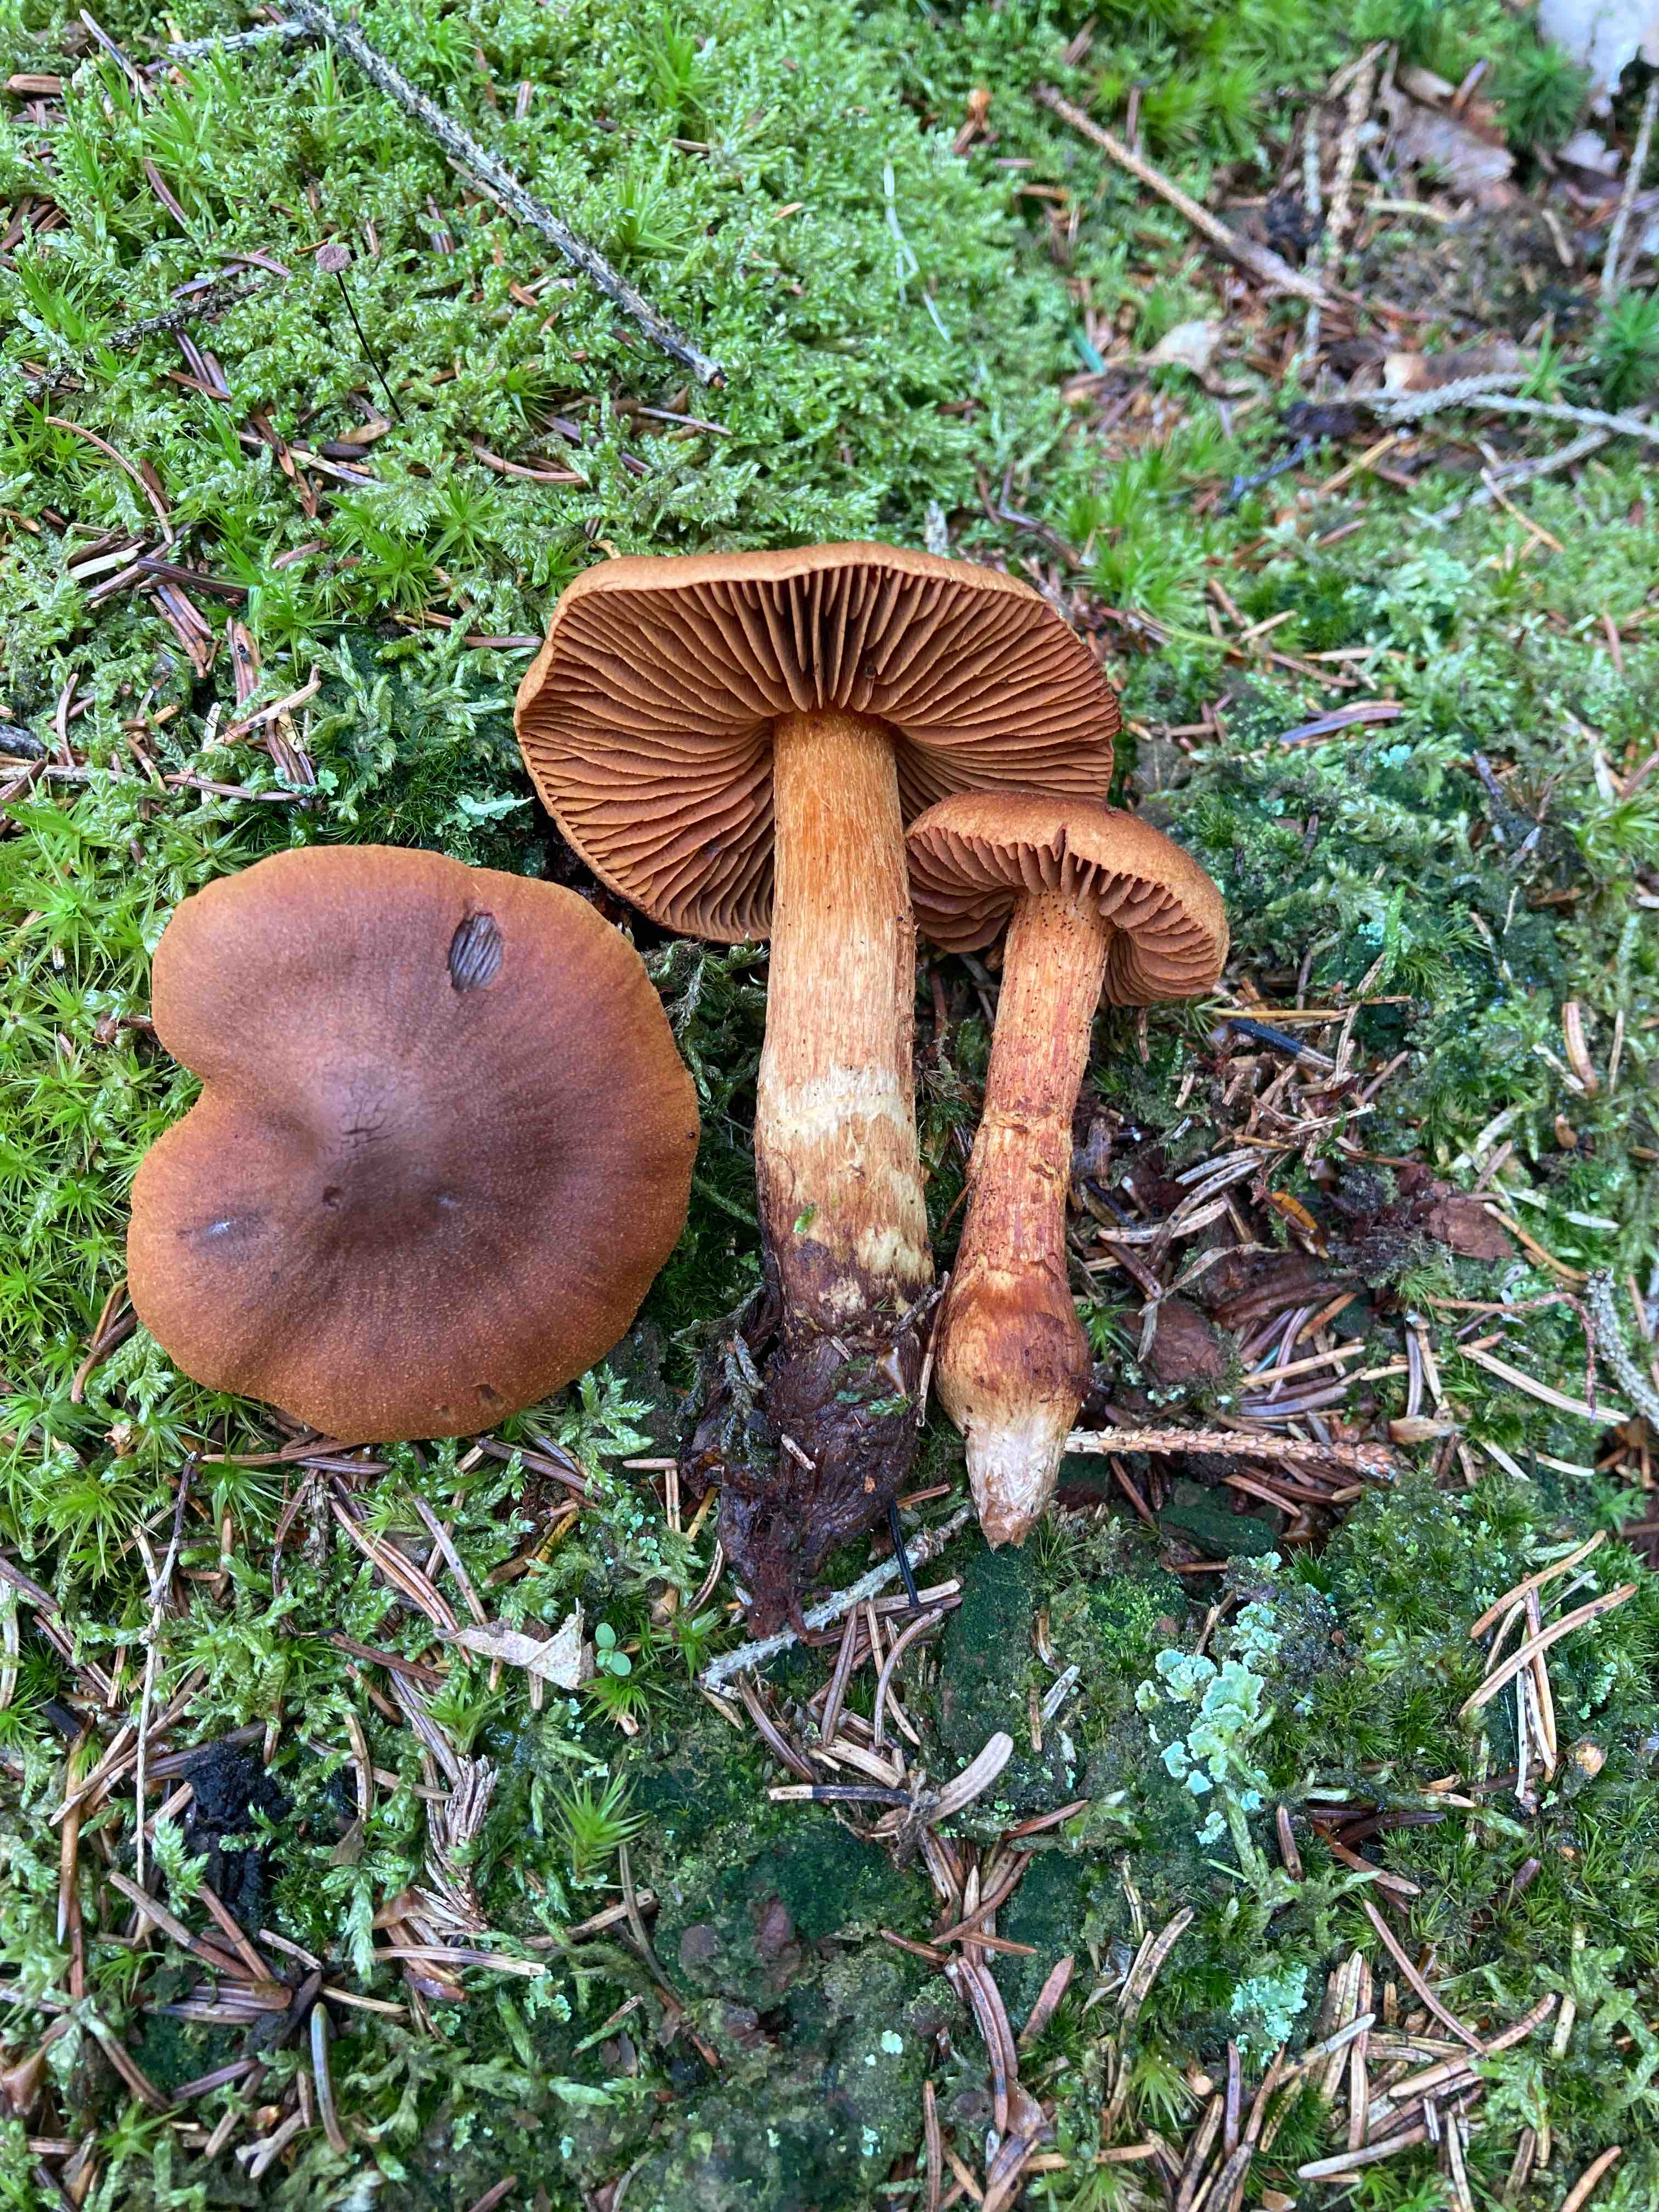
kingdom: Fungi
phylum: Basidiomycota
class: Agaricomycetes
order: Agaricales
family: Cortinariaceae
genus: Cortinarius
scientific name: Cortinarius rubellus
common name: puklet gift-slørhat
